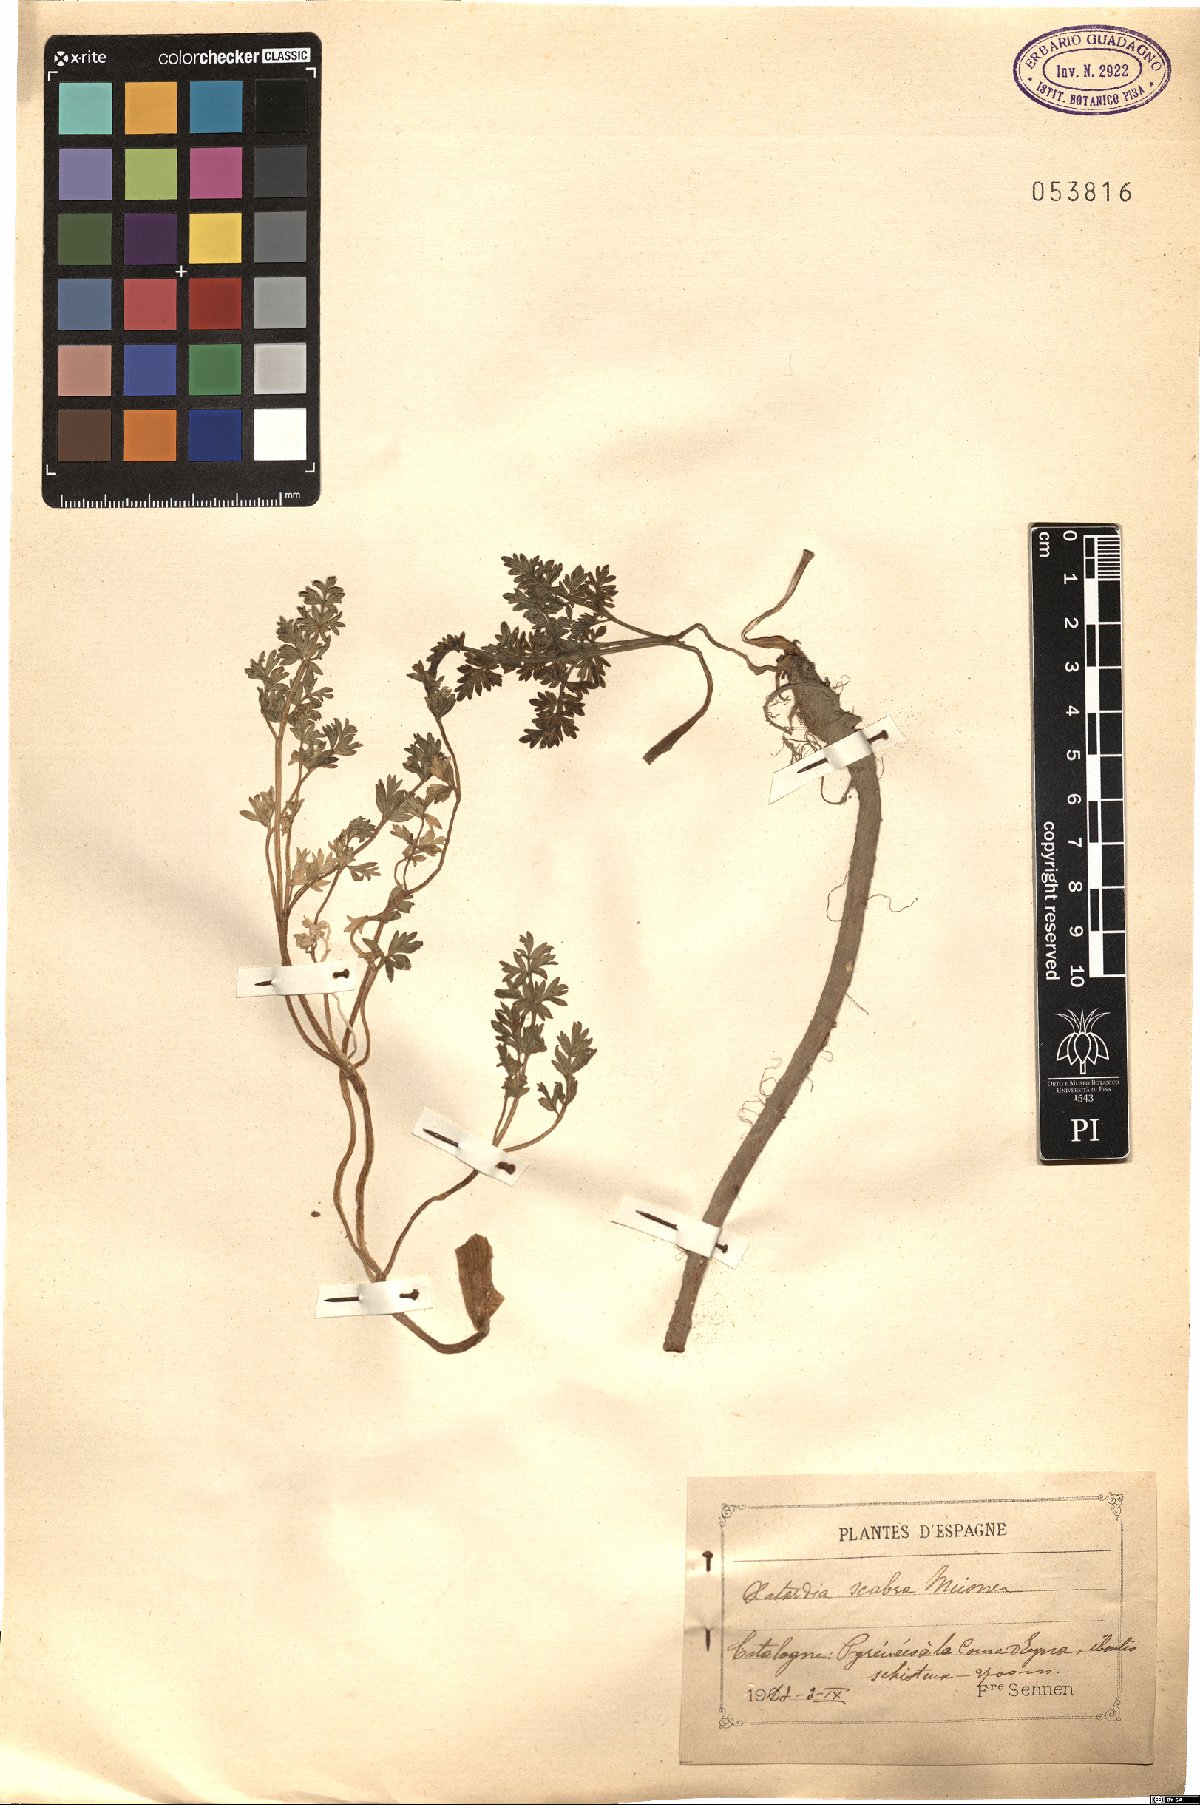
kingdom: Plantae
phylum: Tracheophyta
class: Magnoliopsida
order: Apiales
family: Apiaceae
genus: Xatardia
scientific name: Xatardia scabra
